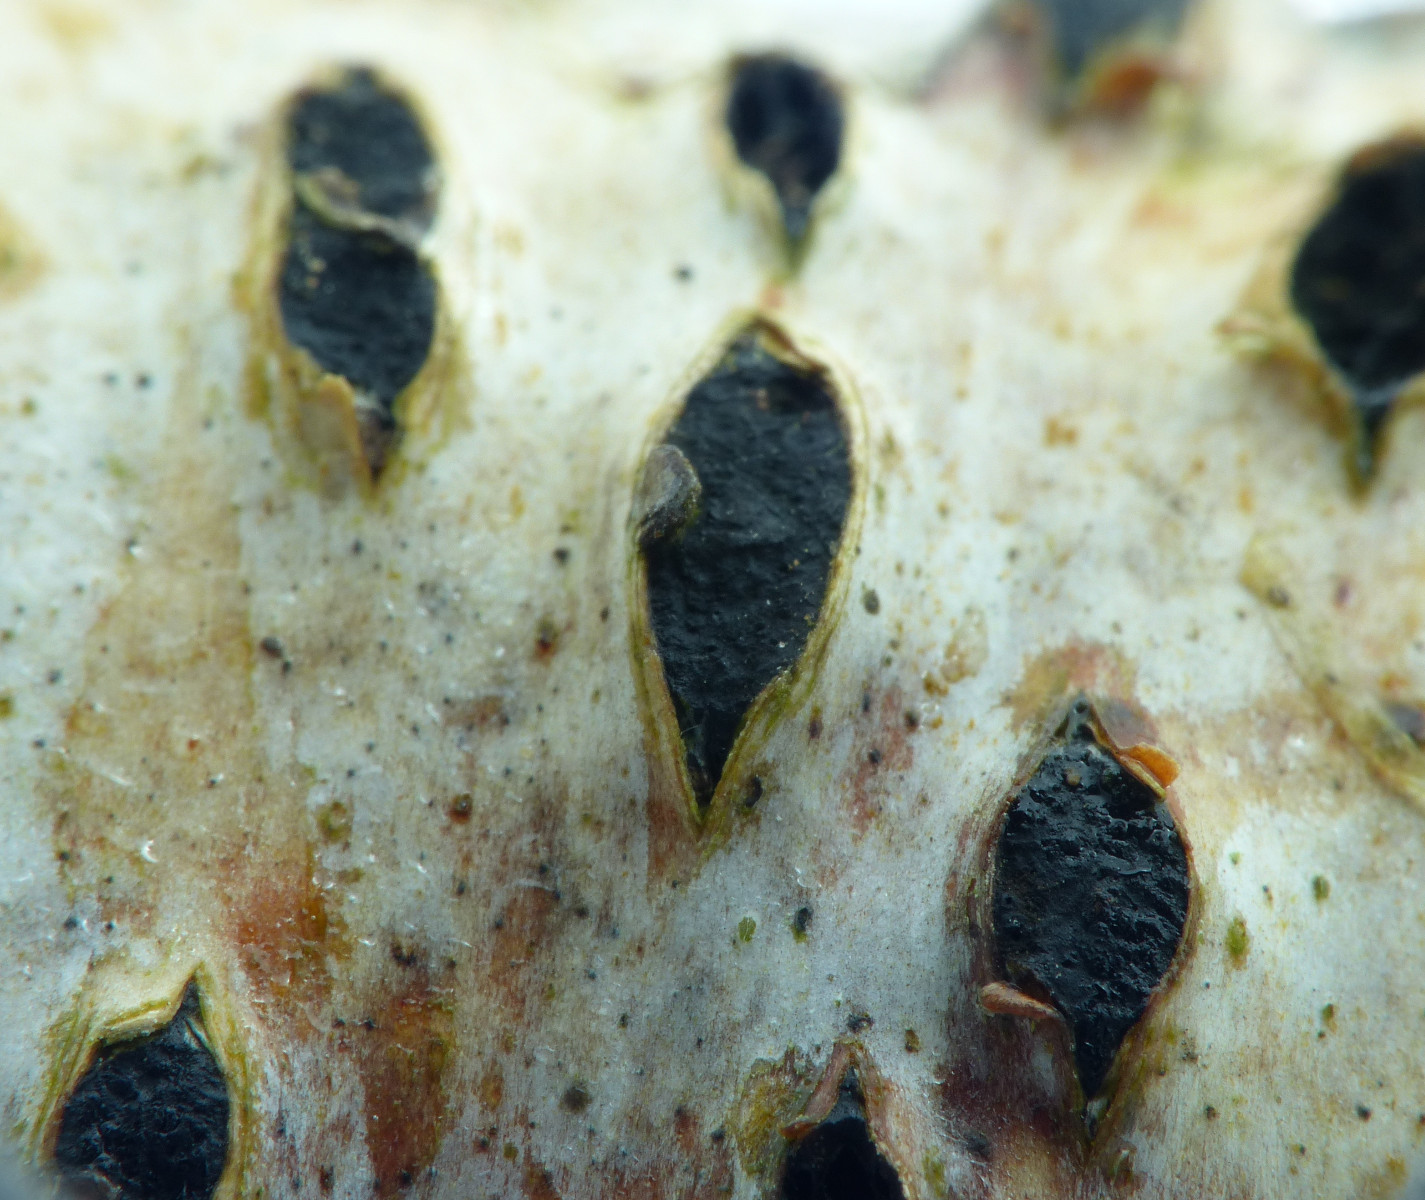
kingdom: Fungi
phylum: Ascomycota
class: Sordariomycetes
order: Xylariales
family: Diatrypaceae
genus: Diatrypella
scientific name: Diatrypella favacea
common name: Birch blackhead
